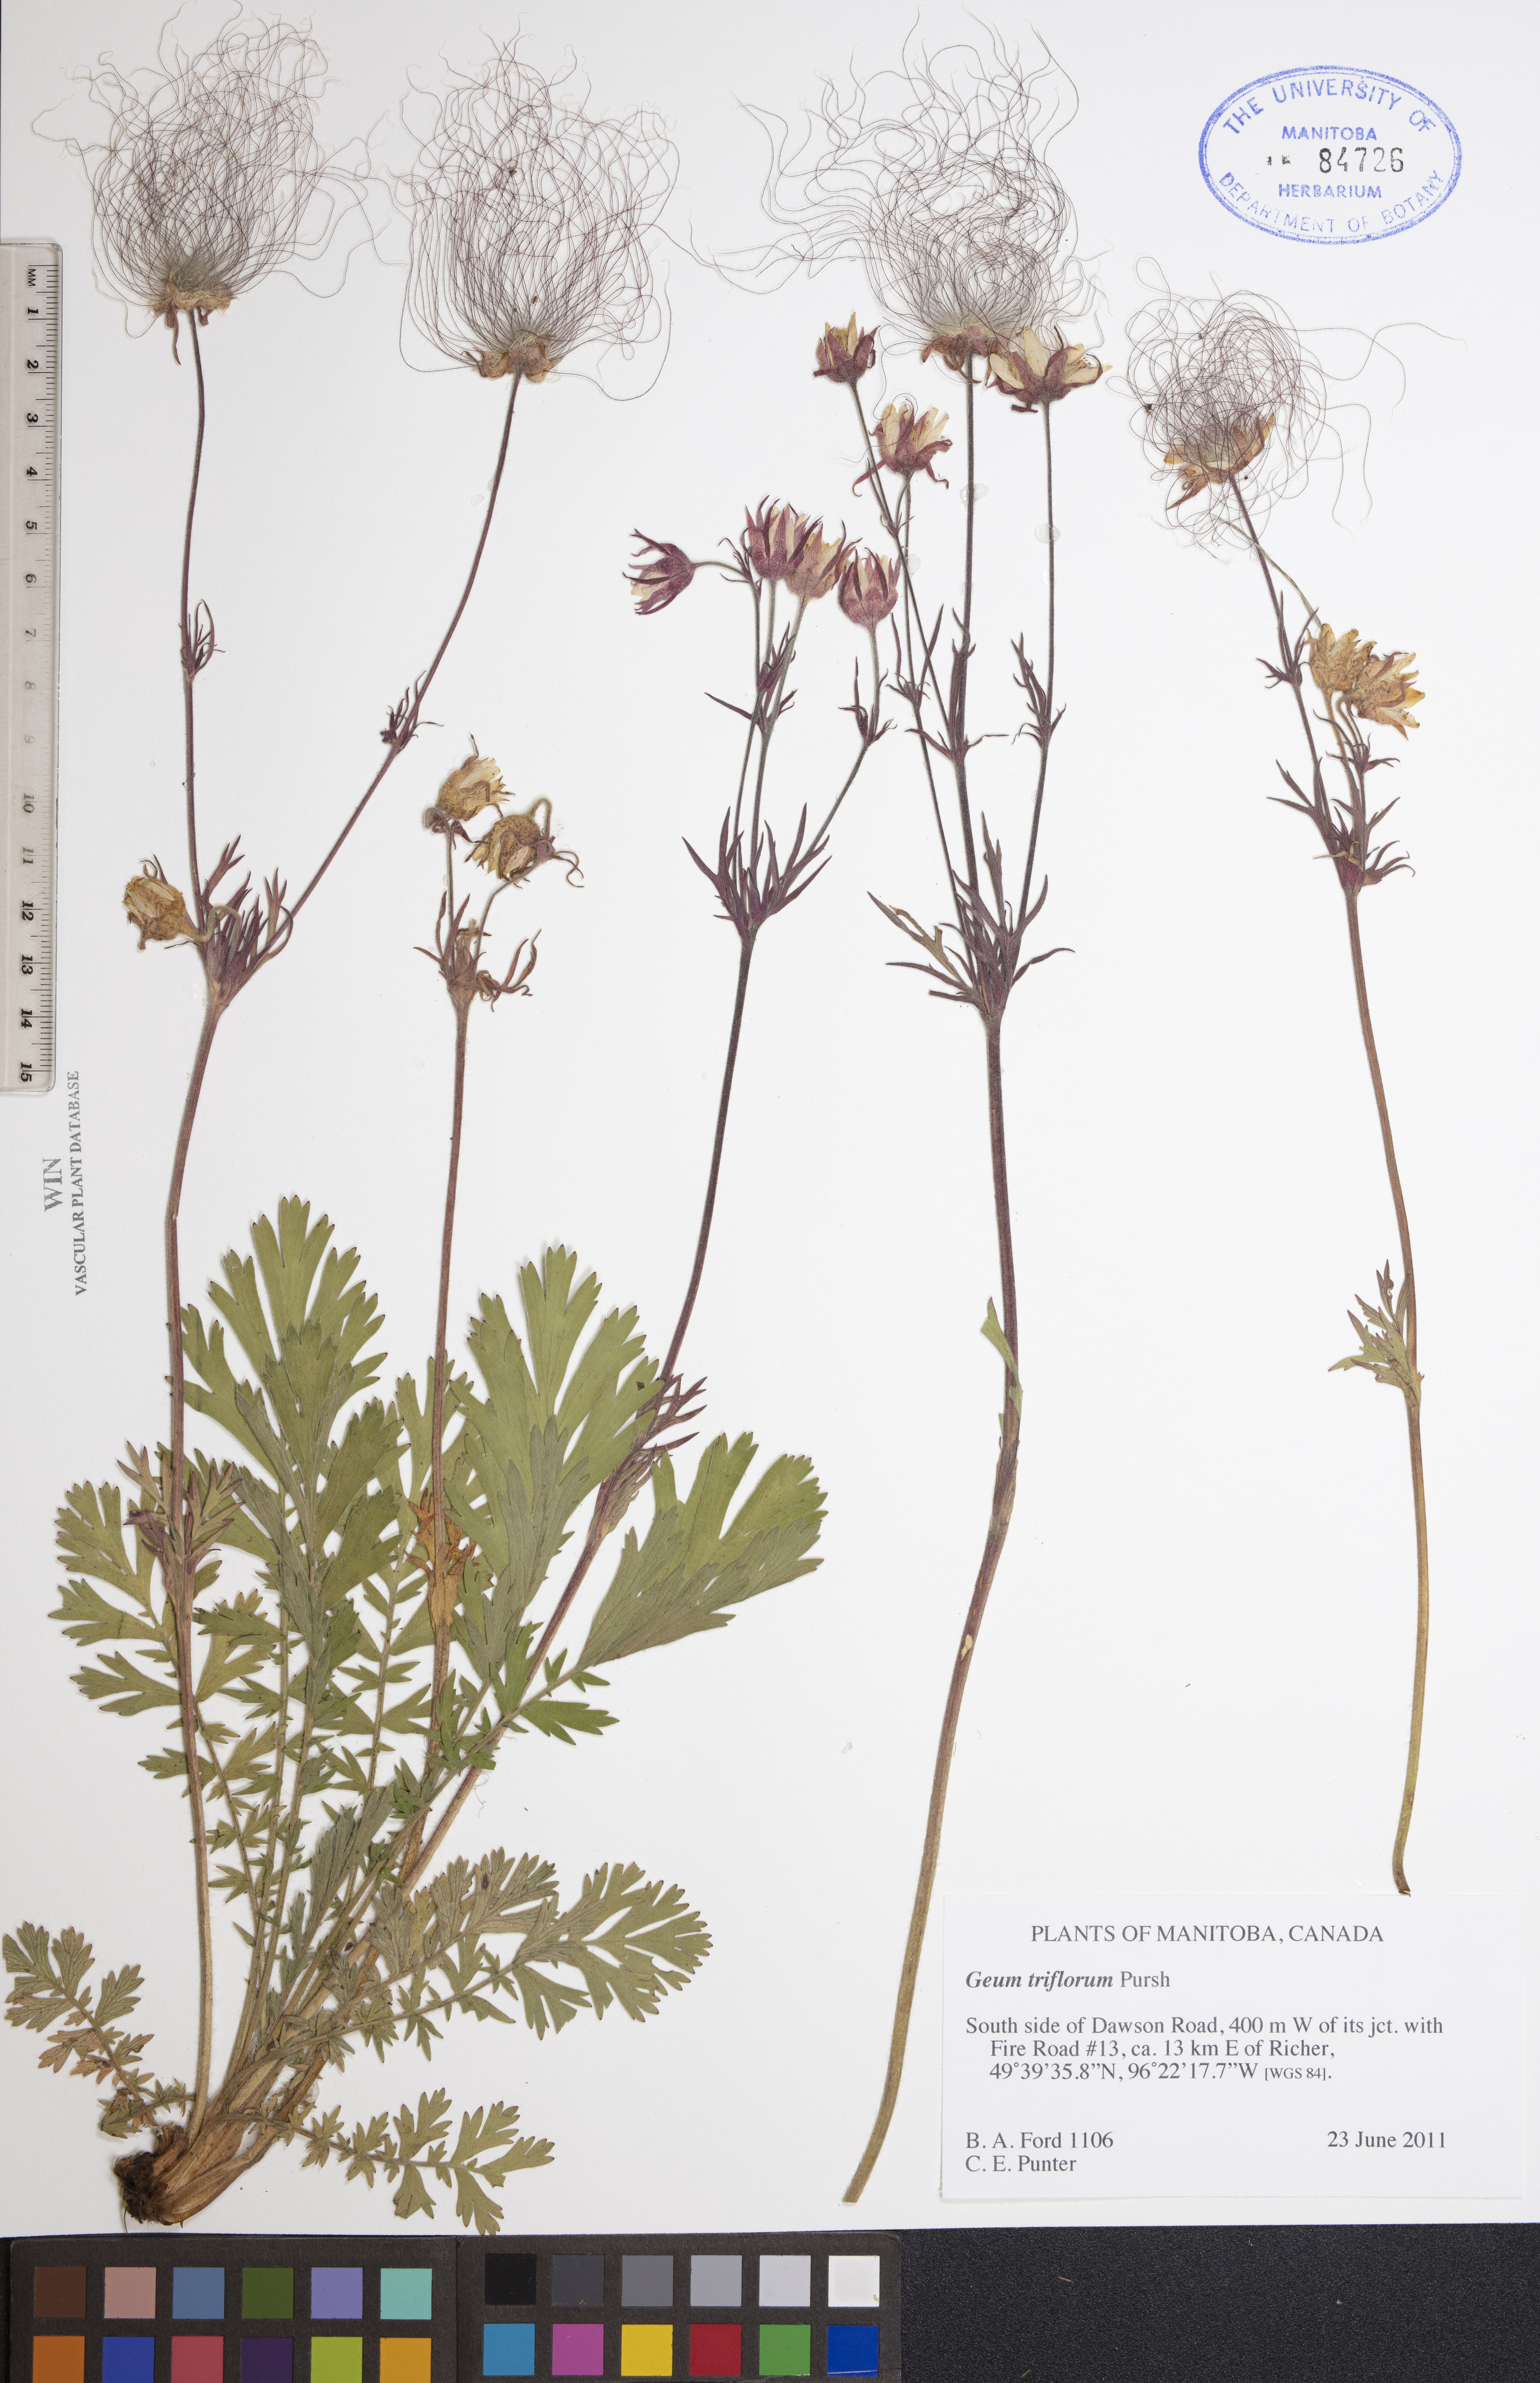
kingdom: Plantae
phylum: Tracheophyta
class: Magnoliopsida
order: Rosales
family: Rosaceae
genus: Geum
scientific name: Geum triflorum
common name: Old man's whiskers
